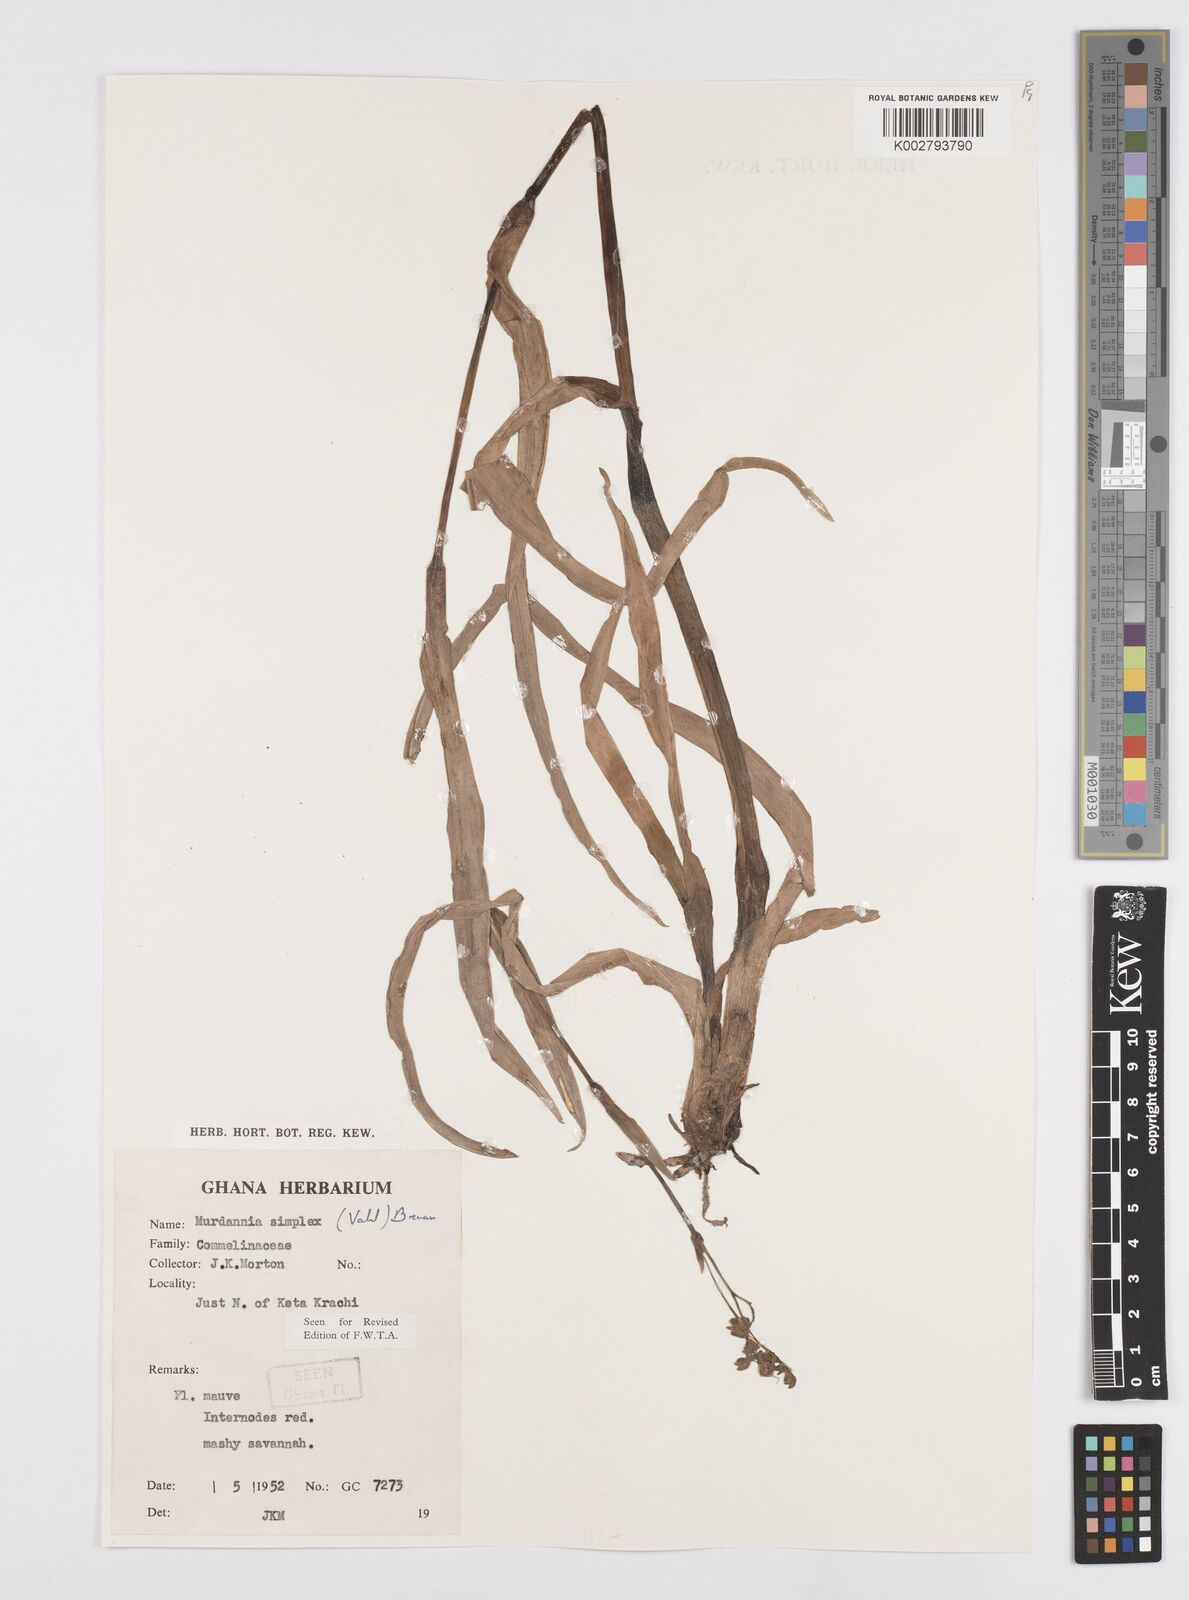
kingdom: Plantae
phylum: Tracheophyta
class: Liliopsida
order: Commelinales
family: Commelinaceae
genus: Murdannia
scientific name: Murdannia simplex
